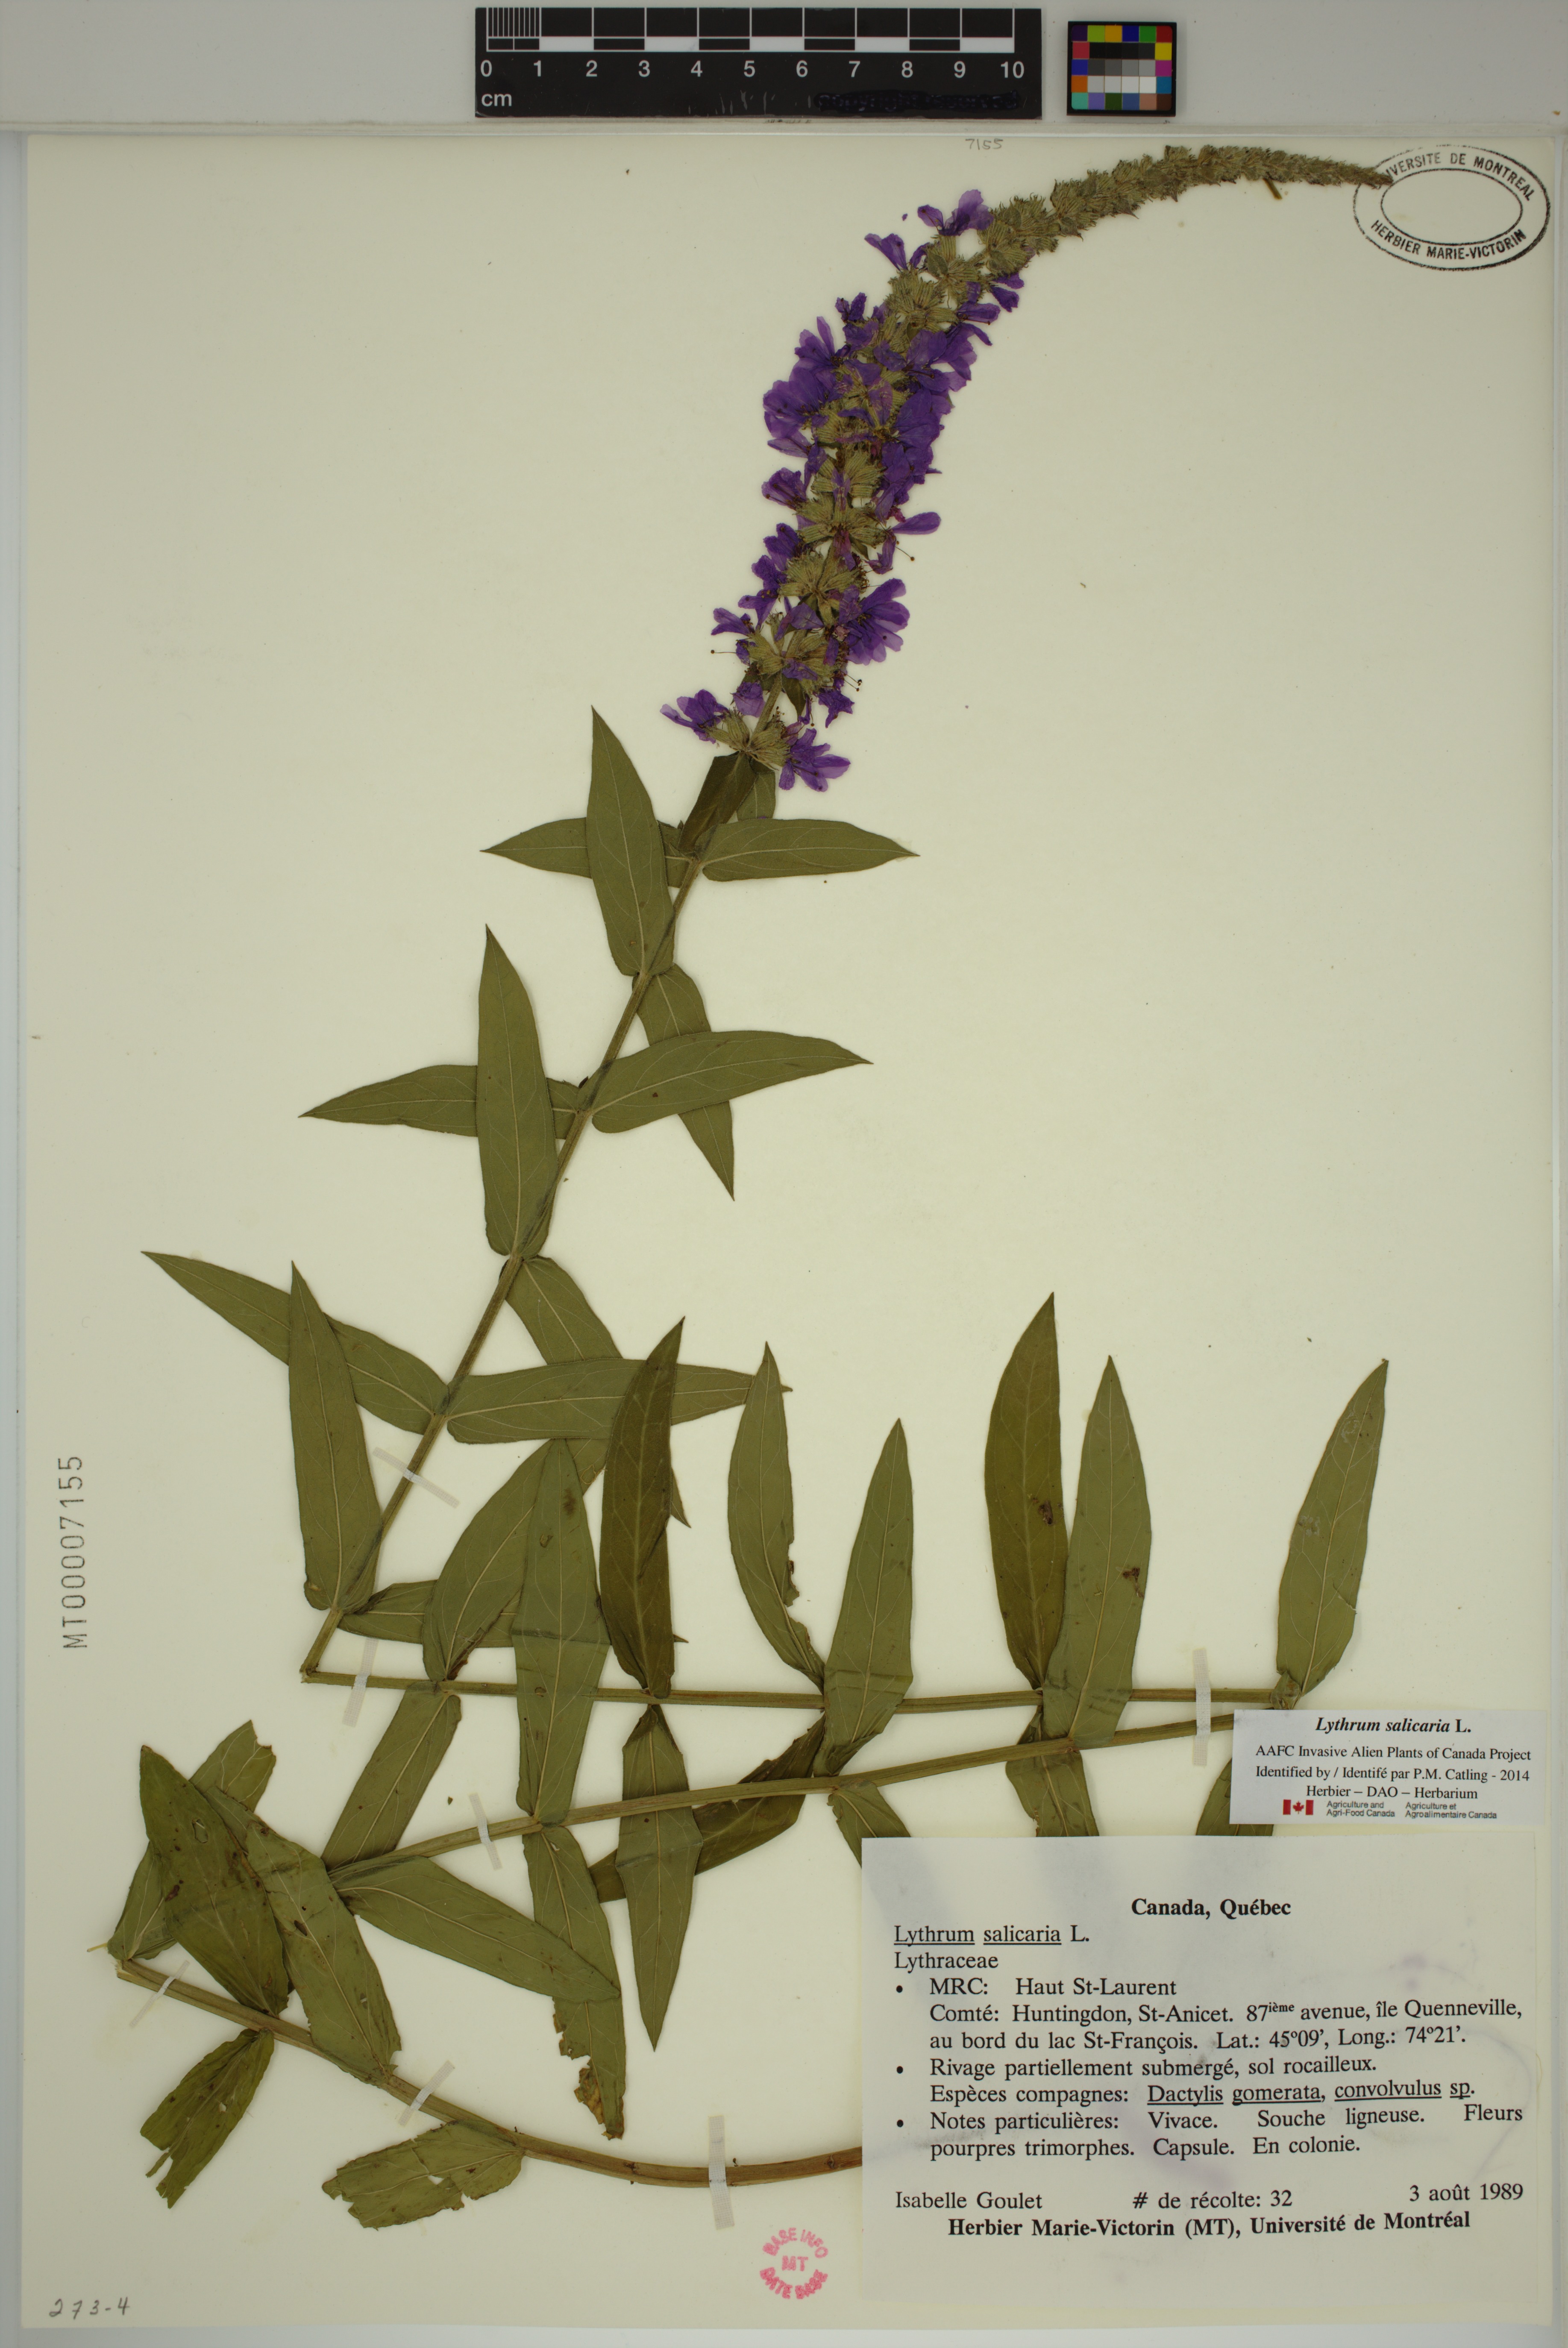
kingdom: Plantae
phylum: Tracheophyta
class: Magnoliopsida
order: Myrtales
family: Lythraceae
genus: Lythrum
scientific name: Lythrum salicaria
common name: Purple loosestrife
